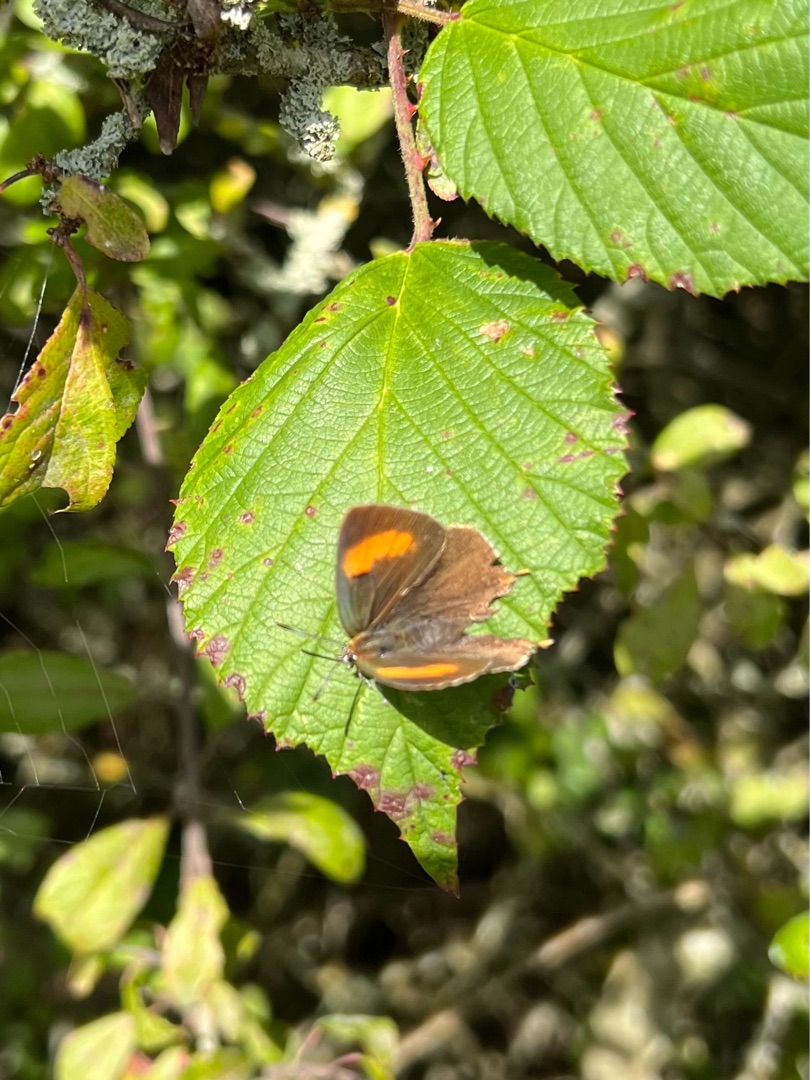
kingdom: Animalia
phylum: Arthropoda
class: Insecta
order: Lepidoptera
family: Lycaenidae
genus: Thecla
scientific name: Thecla betulae
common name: Guldhale
